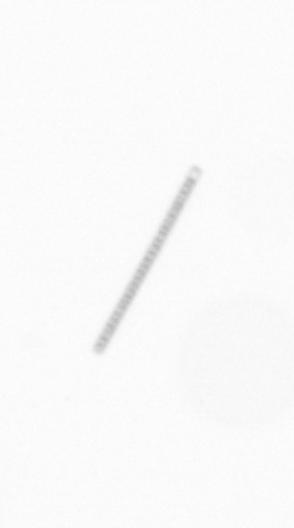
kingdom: Chromista
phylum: Ochrophyta
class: Bacillariophyceae
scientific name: Bacillariophyceae
